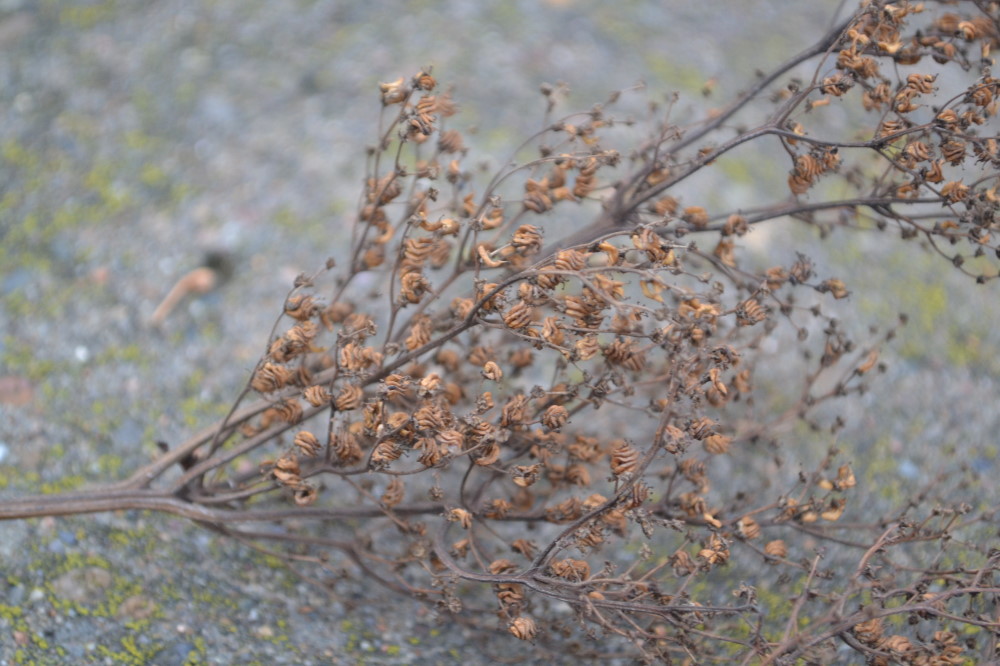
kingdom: Plantae
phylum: Tracheophyta
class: Magnoliopsida
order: Fabales
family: Fabaceae
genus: Medicago
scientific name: Medicago sativa
